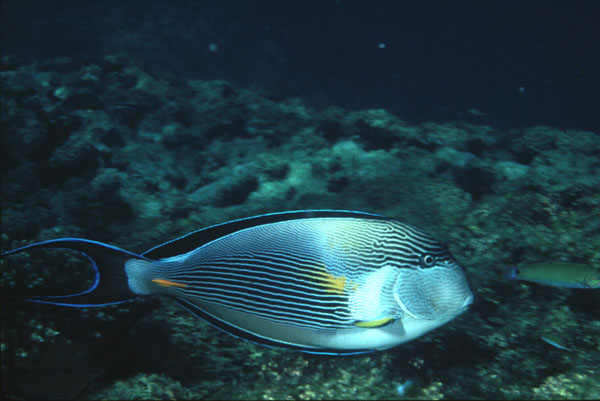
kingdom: Animalia
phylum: Chordata
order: Perciformes
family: Acanthuridae
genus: Acanthurus
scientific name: Acanthurus sohal
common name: Red sea surgeonfish
